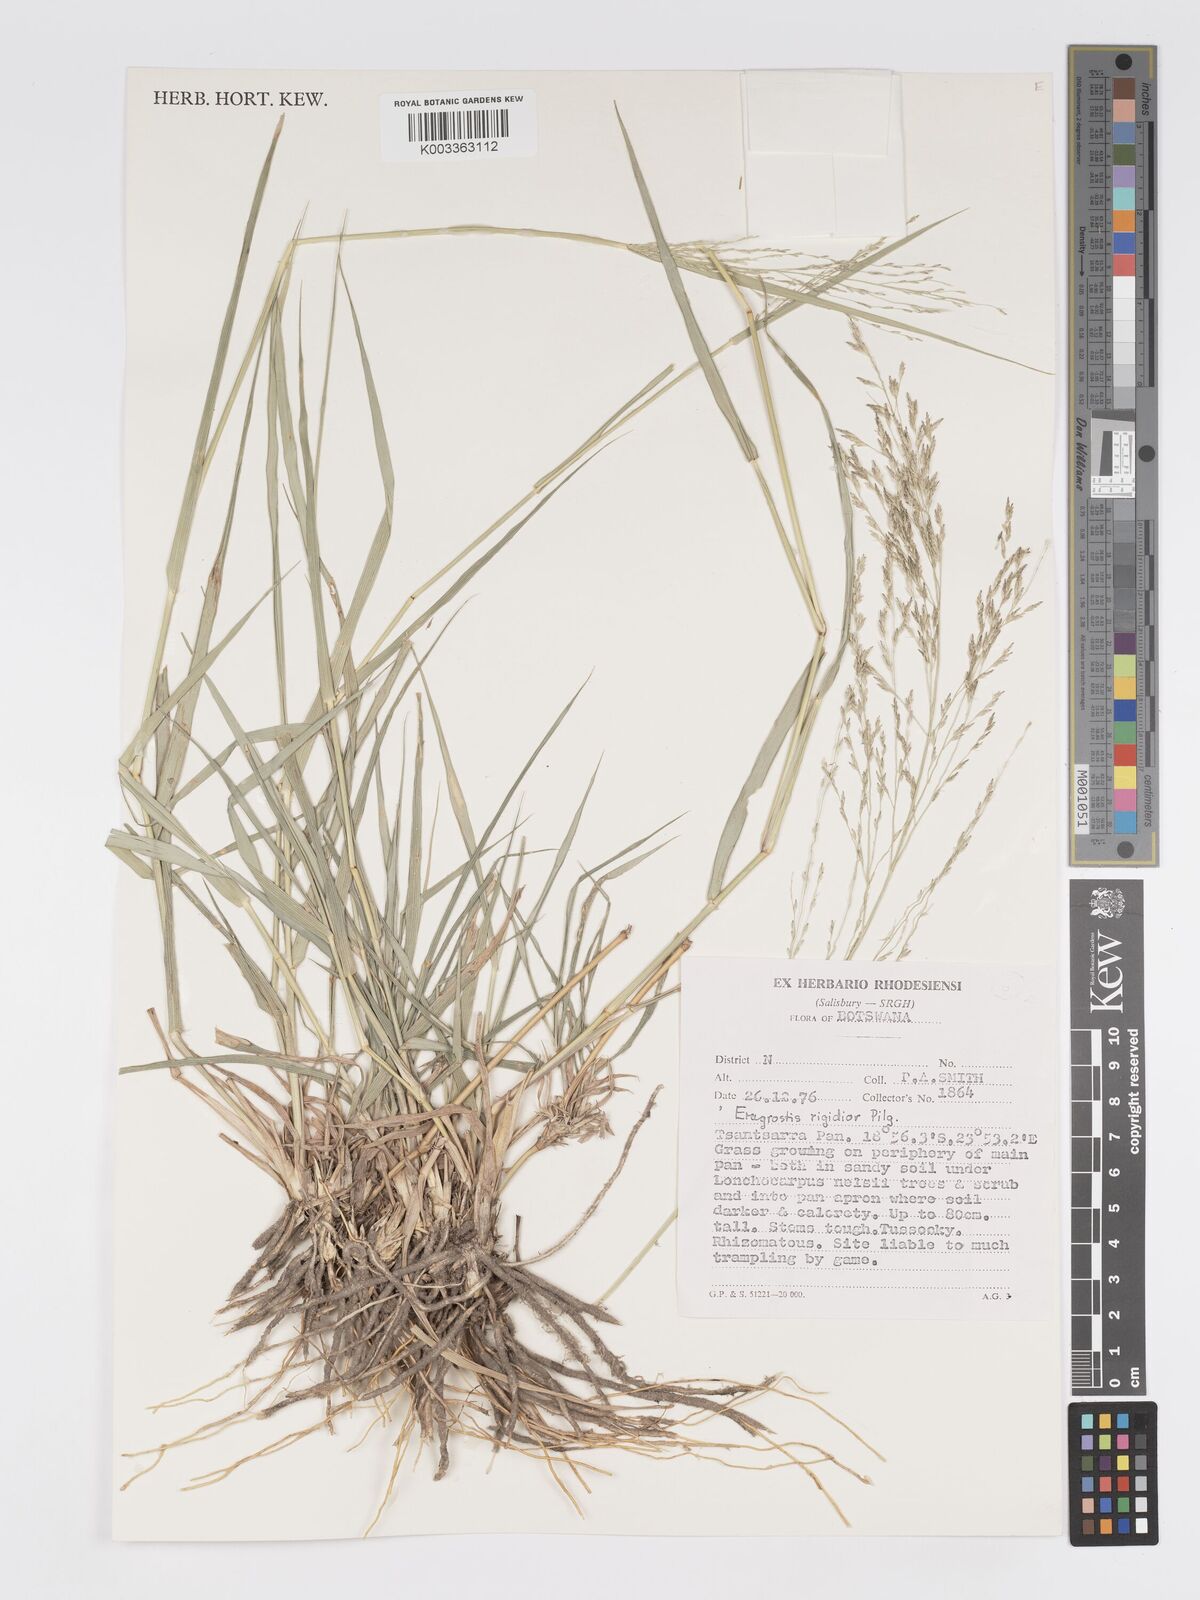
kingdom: Plantae
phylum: Tracheophyta
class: Liliopsida
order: Poales
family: Poaceae
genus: Eragrostis
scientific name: Eragrostis cylindriflora
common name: Cylinderflower lovegrass
